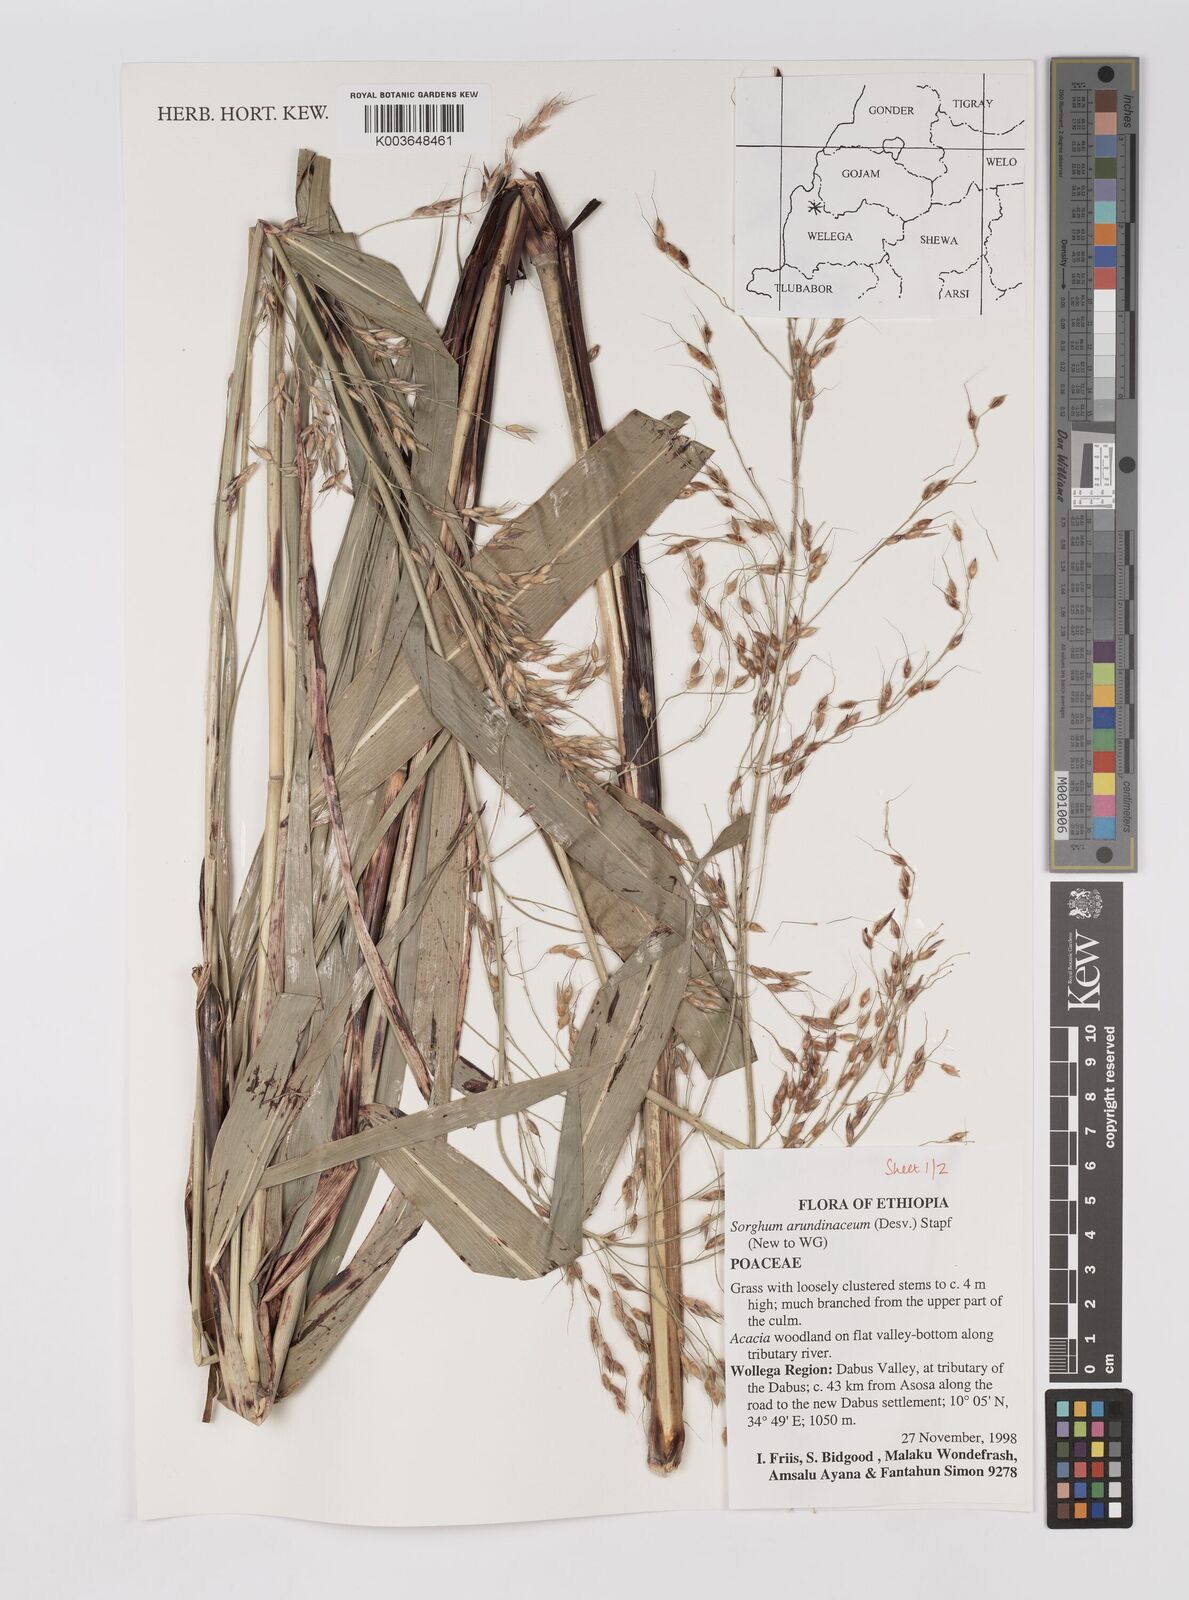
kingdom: Plantae
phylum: Tracheophyta
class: Liliopsida
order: Poales
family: Poaceae
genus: Sorghum
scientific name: Sorghum arundinaceum
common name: Sorghum
